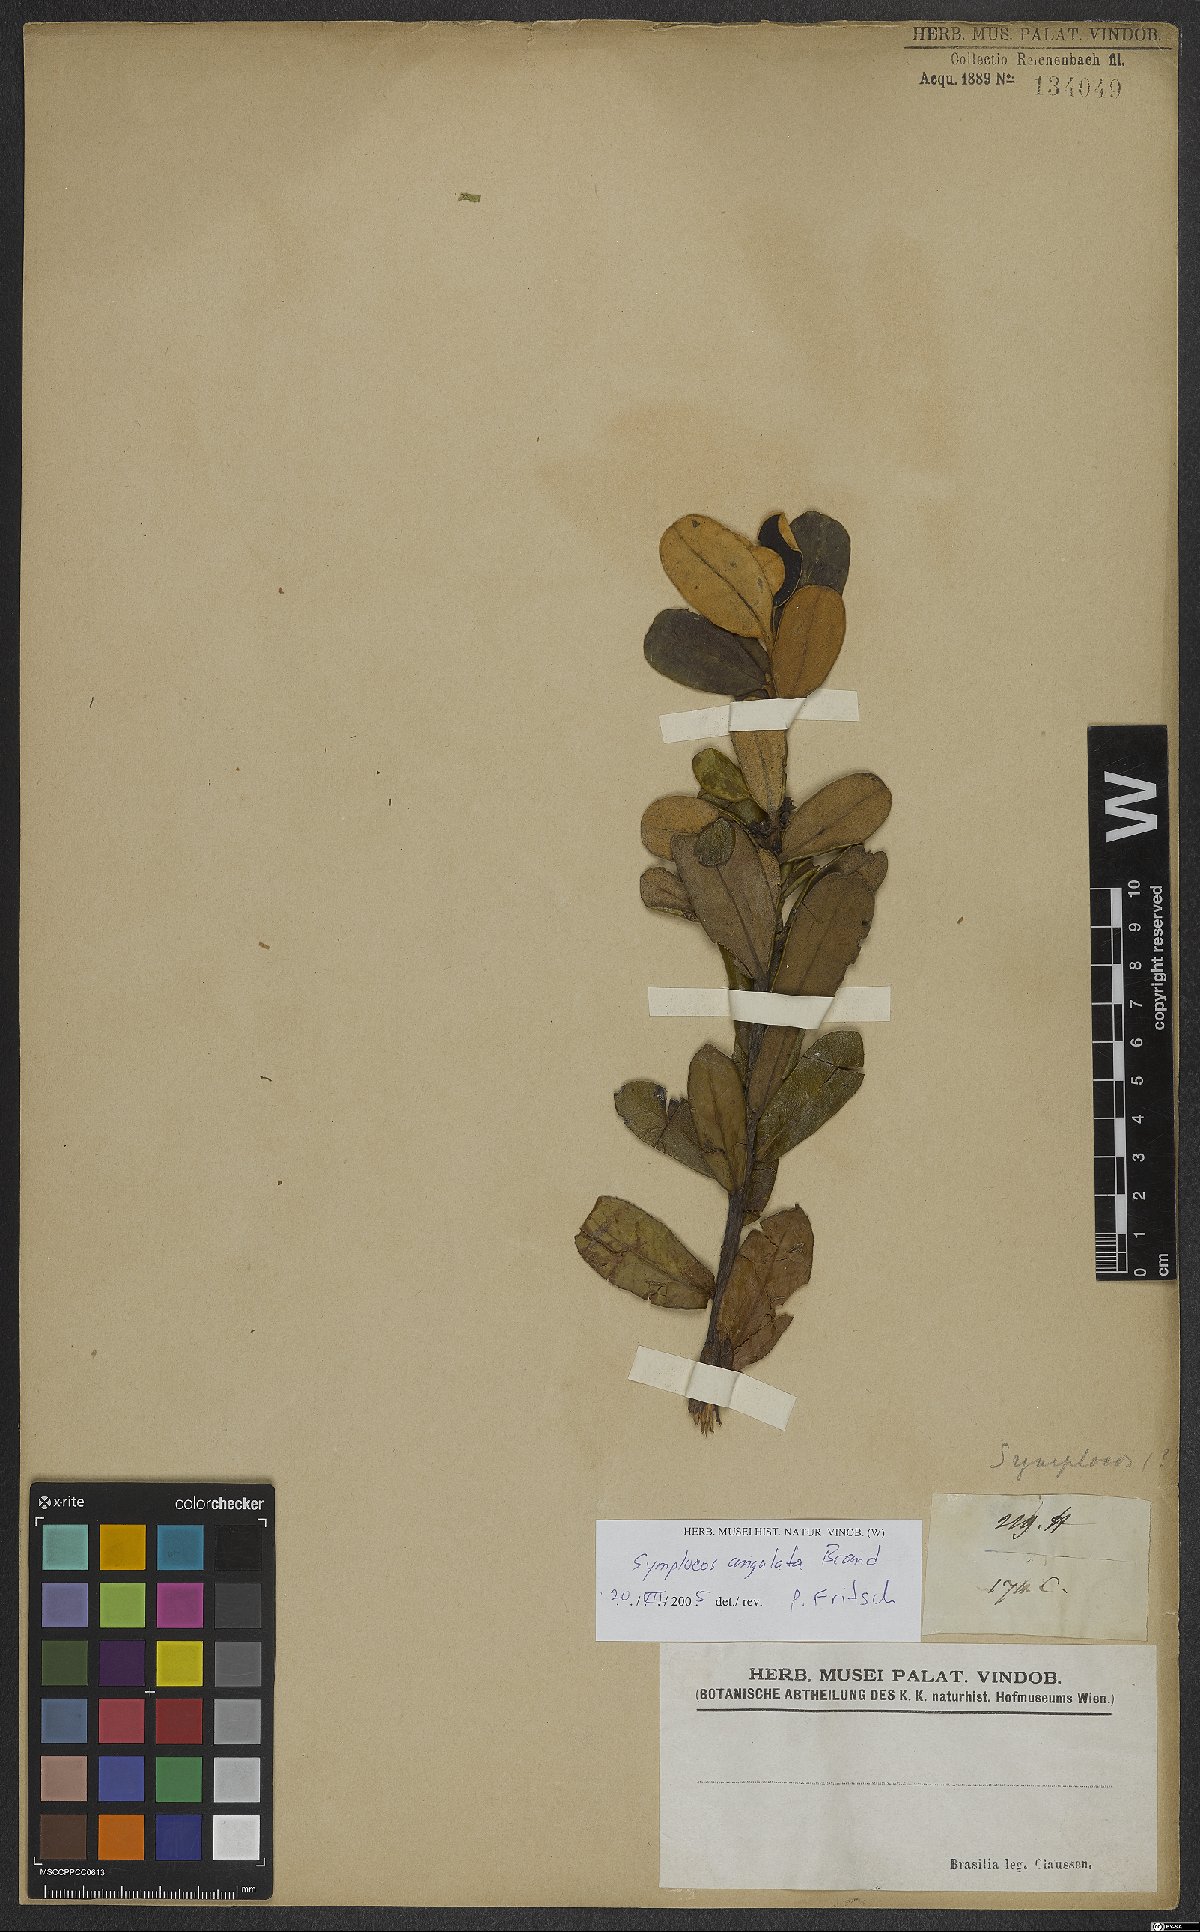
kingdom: Plantae
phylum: Tracheophyta
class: Magnoliopsida
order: Ericales
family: Symplocaceae
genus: Symplocos
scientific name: Symplocos angulata
